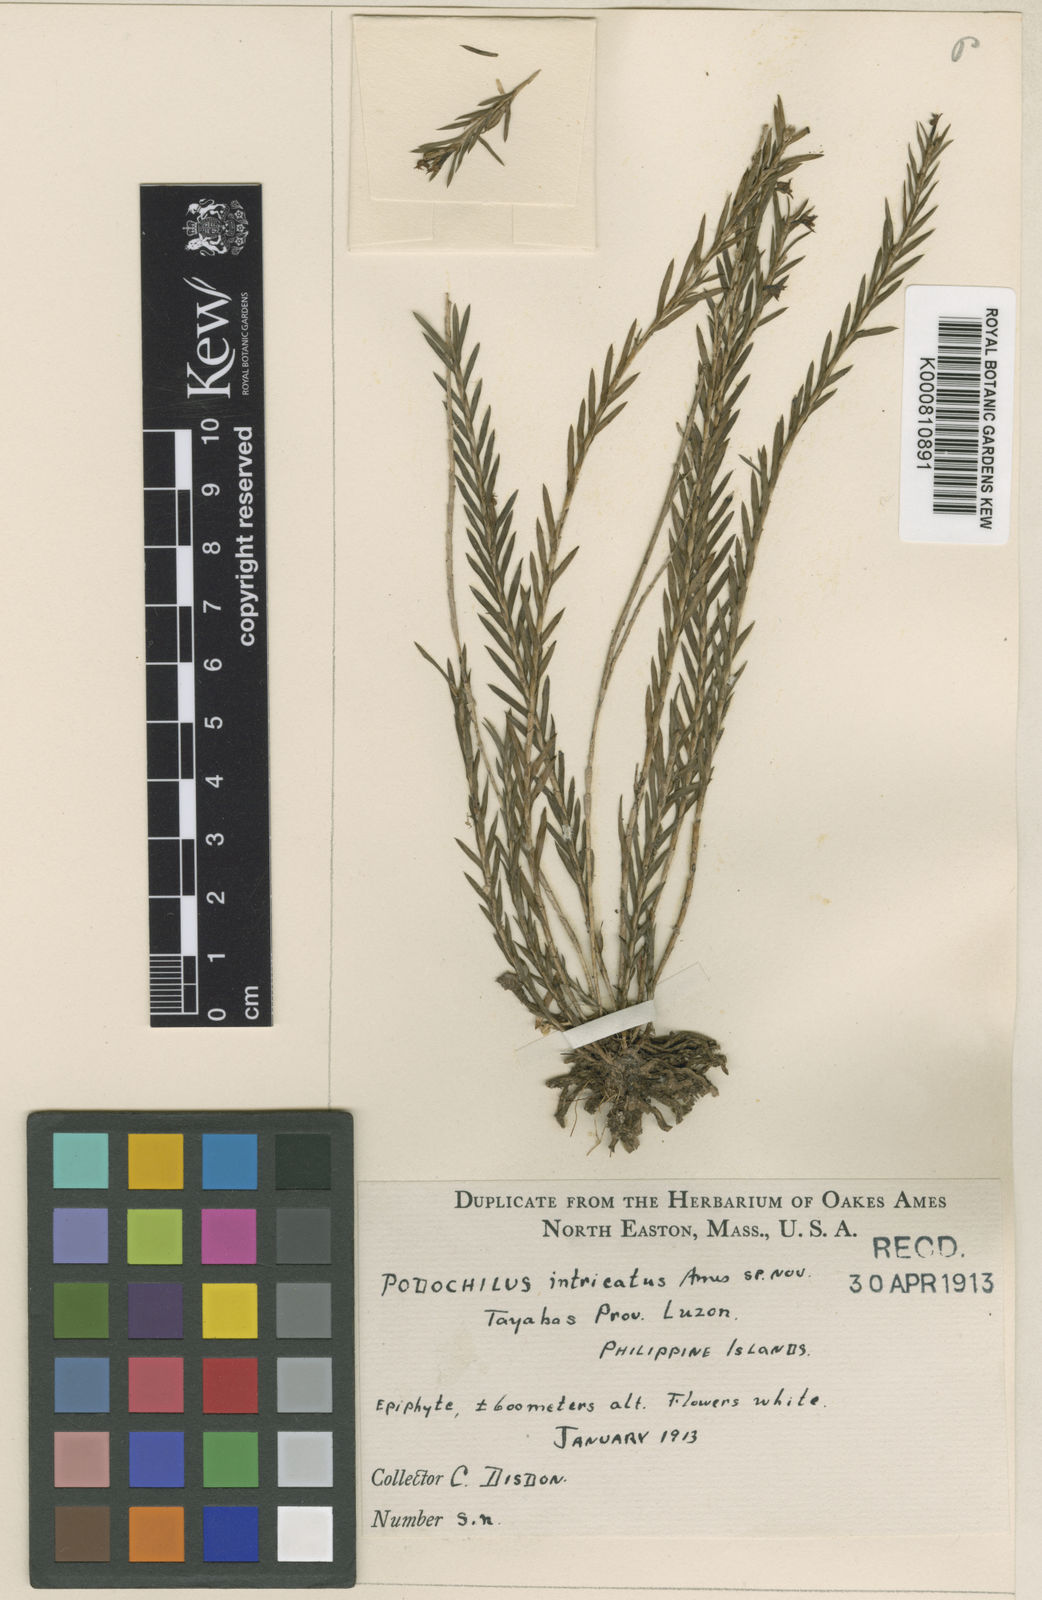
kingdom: Plantae
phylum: Tracheophyta
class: Liliopsida
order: Asparagales
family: Orchidaceae
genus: Podochilus
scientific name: Podochilus intricatus
